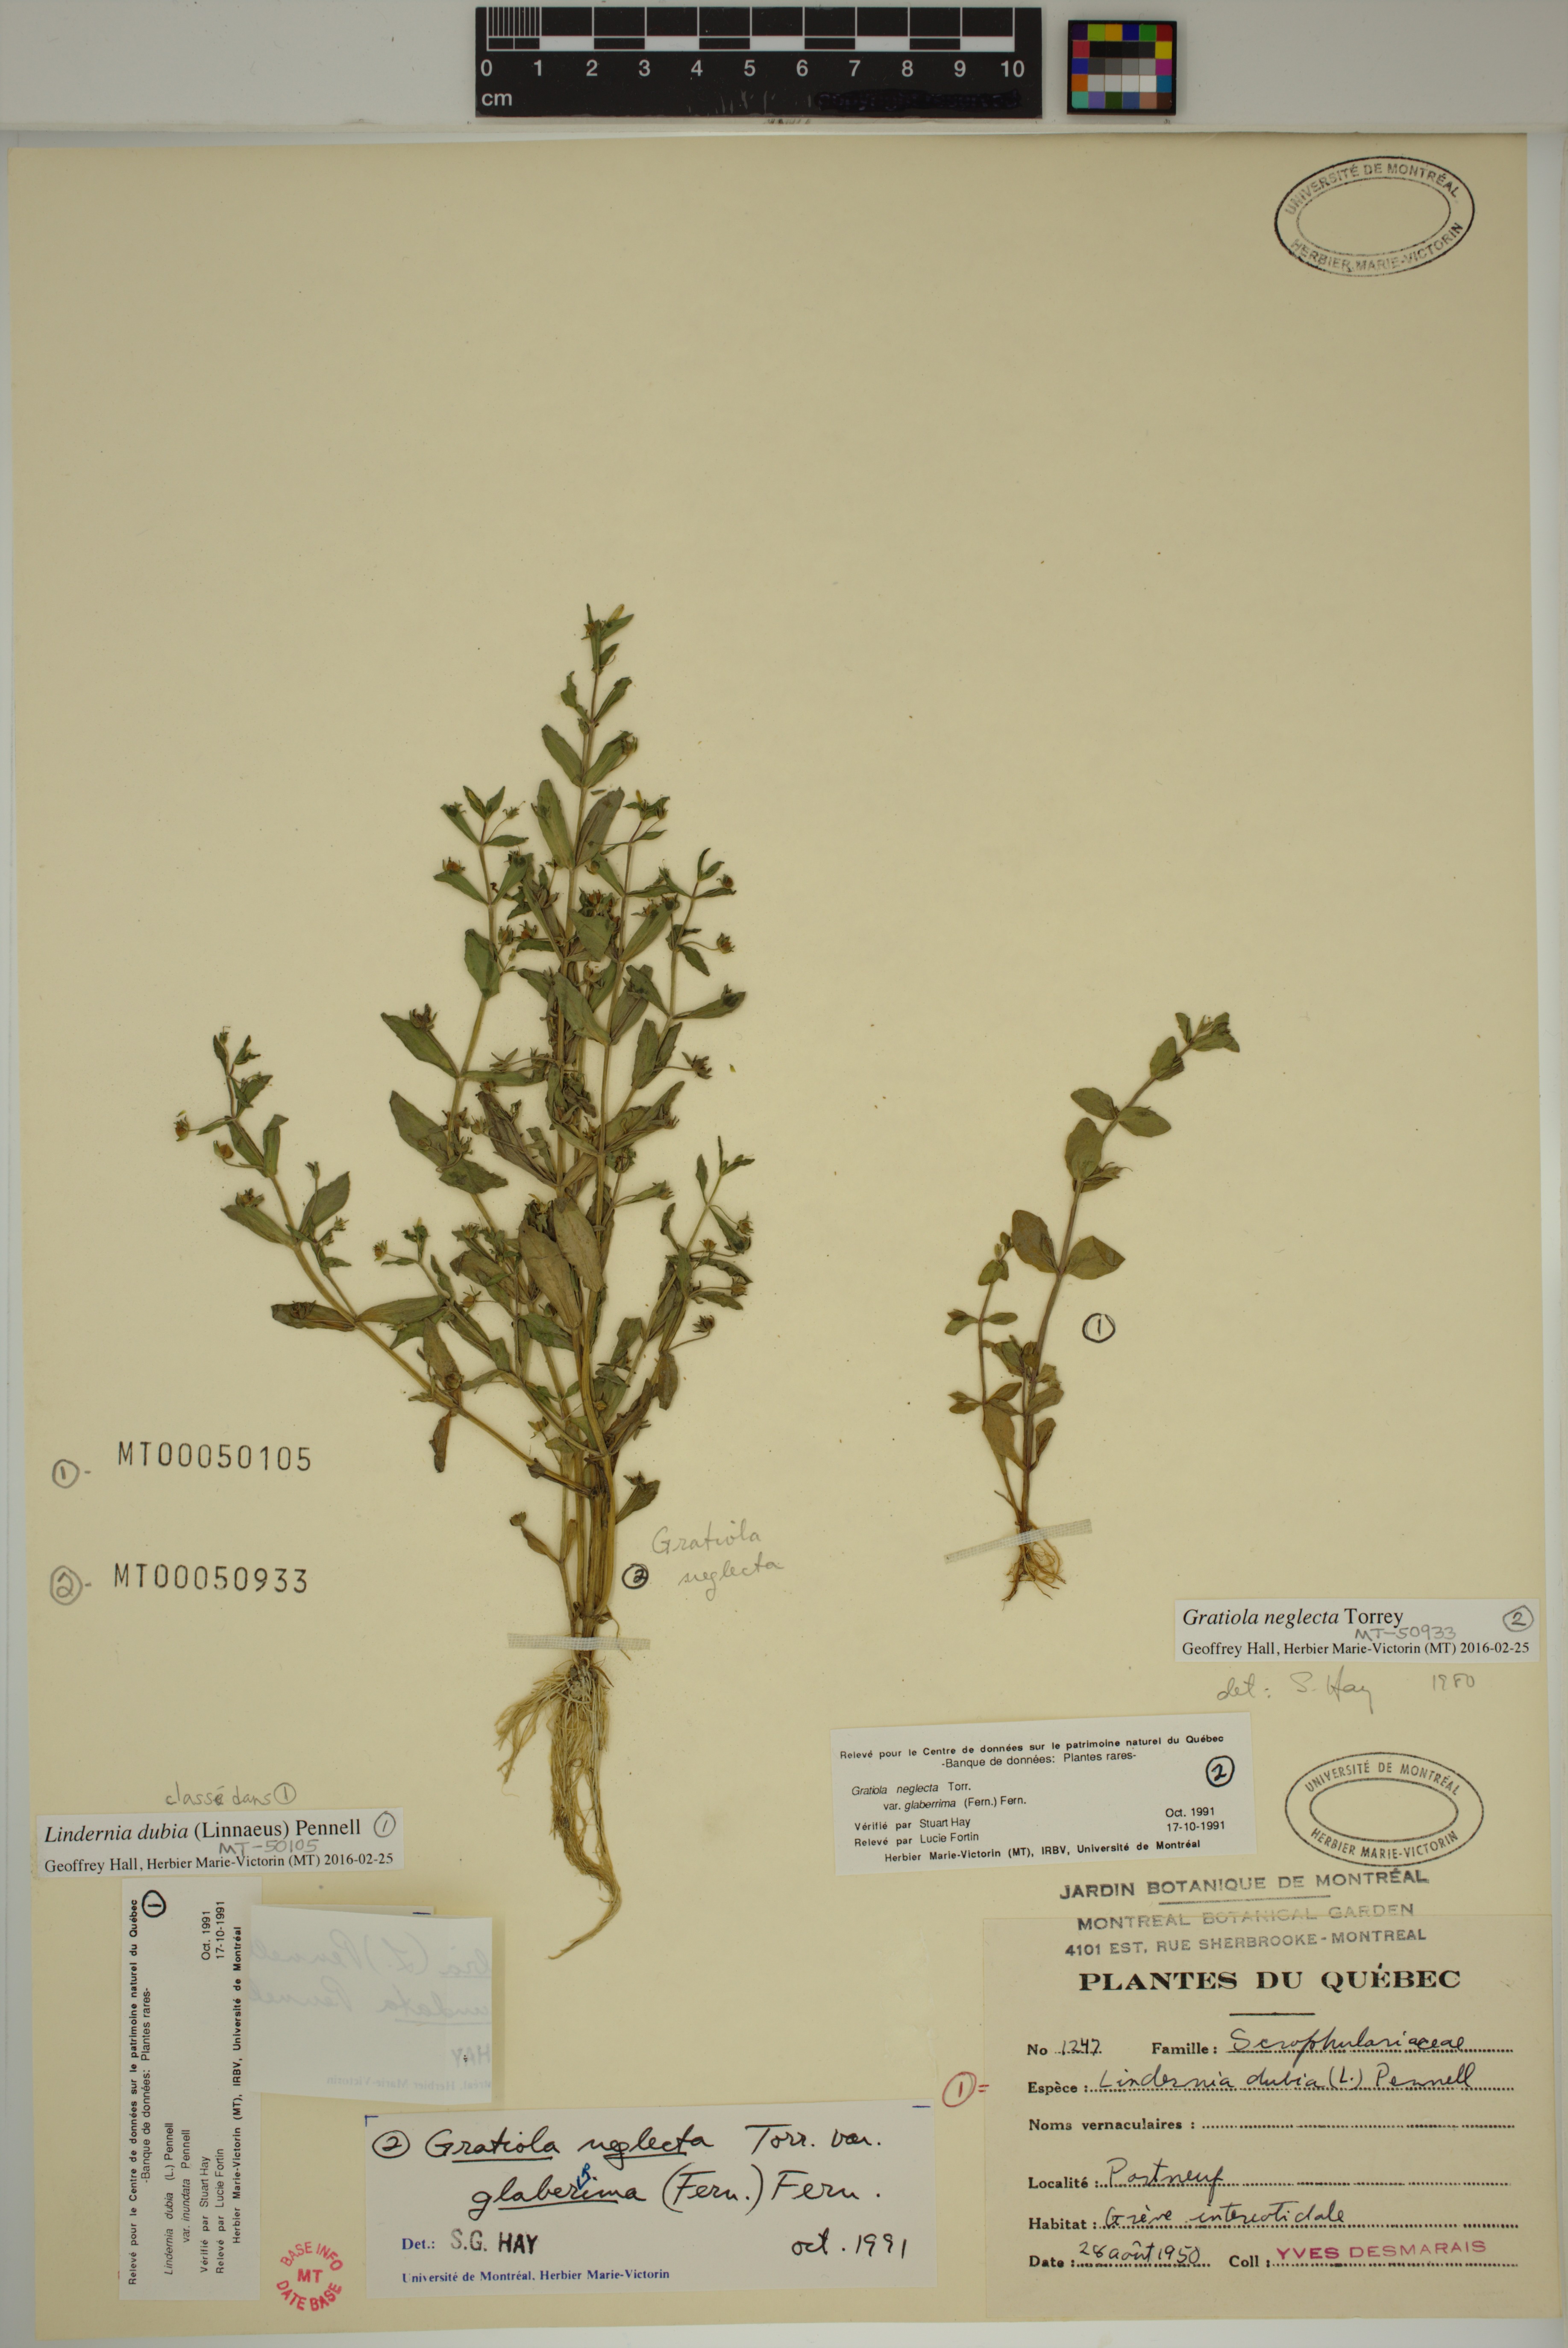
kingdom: Plantae
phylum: Tracheophyta
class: Magnoliopsida
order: Lamiales
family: Plantaginaceae
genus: Gratiola
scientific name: Gratiola neglecta
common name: American hedge-hyssop
